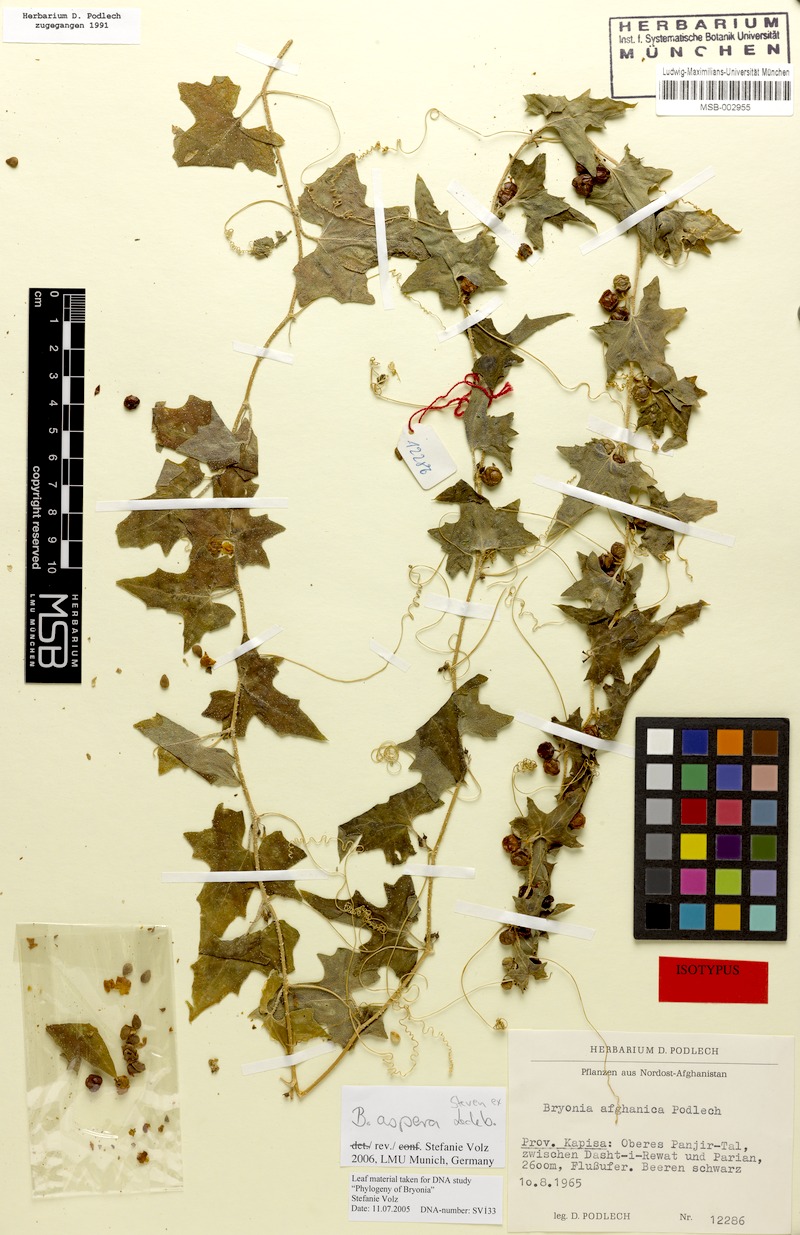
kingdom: Plantae
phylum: Tracheophyta
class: Magnoliopsida
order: Cucurbitales
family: Cucurbitaceae
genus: Bryonia
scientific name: Bryonia aspera
